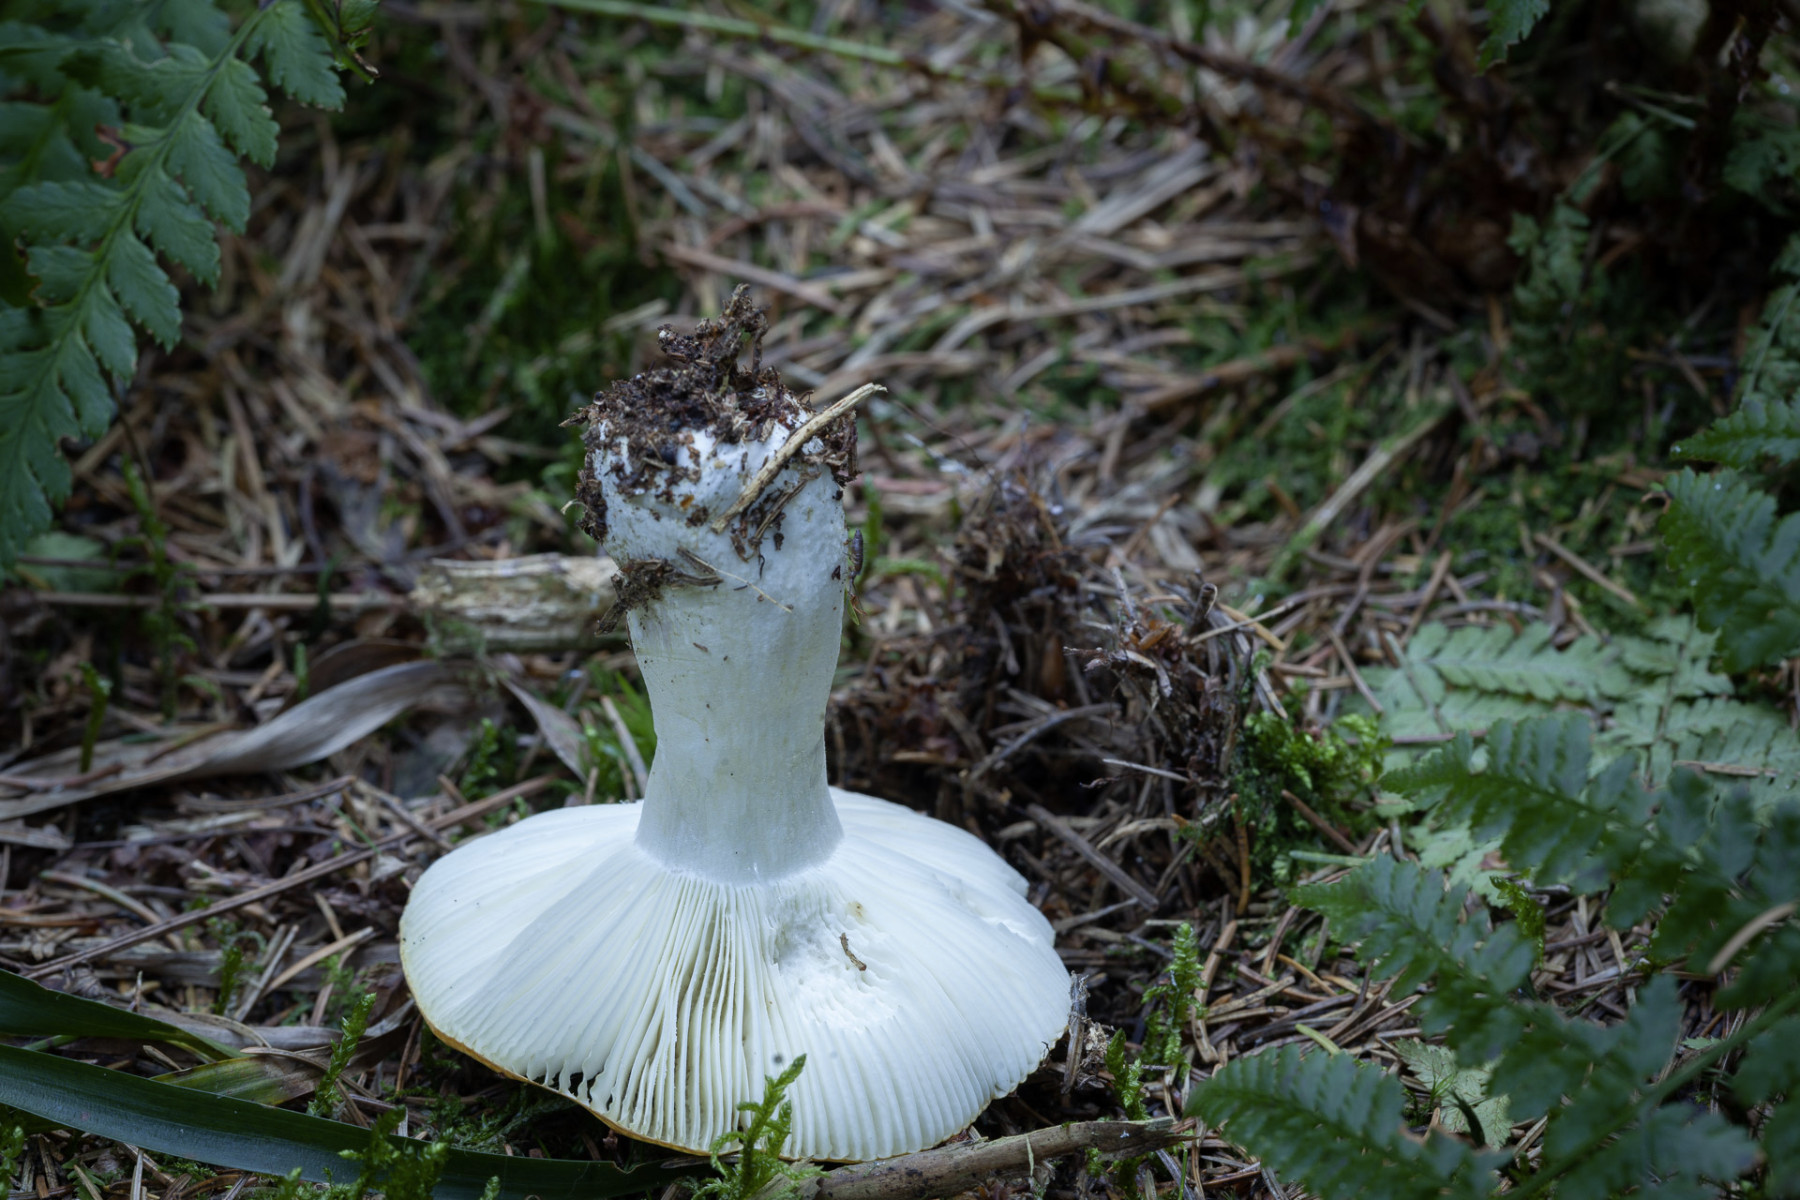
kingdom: Fungi
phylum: Basidiomycota
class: Agaricomycetes
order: Russulales
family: Russulaceae
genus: Russula
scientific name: Russula ochroleuca
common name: okkergul skørhat
